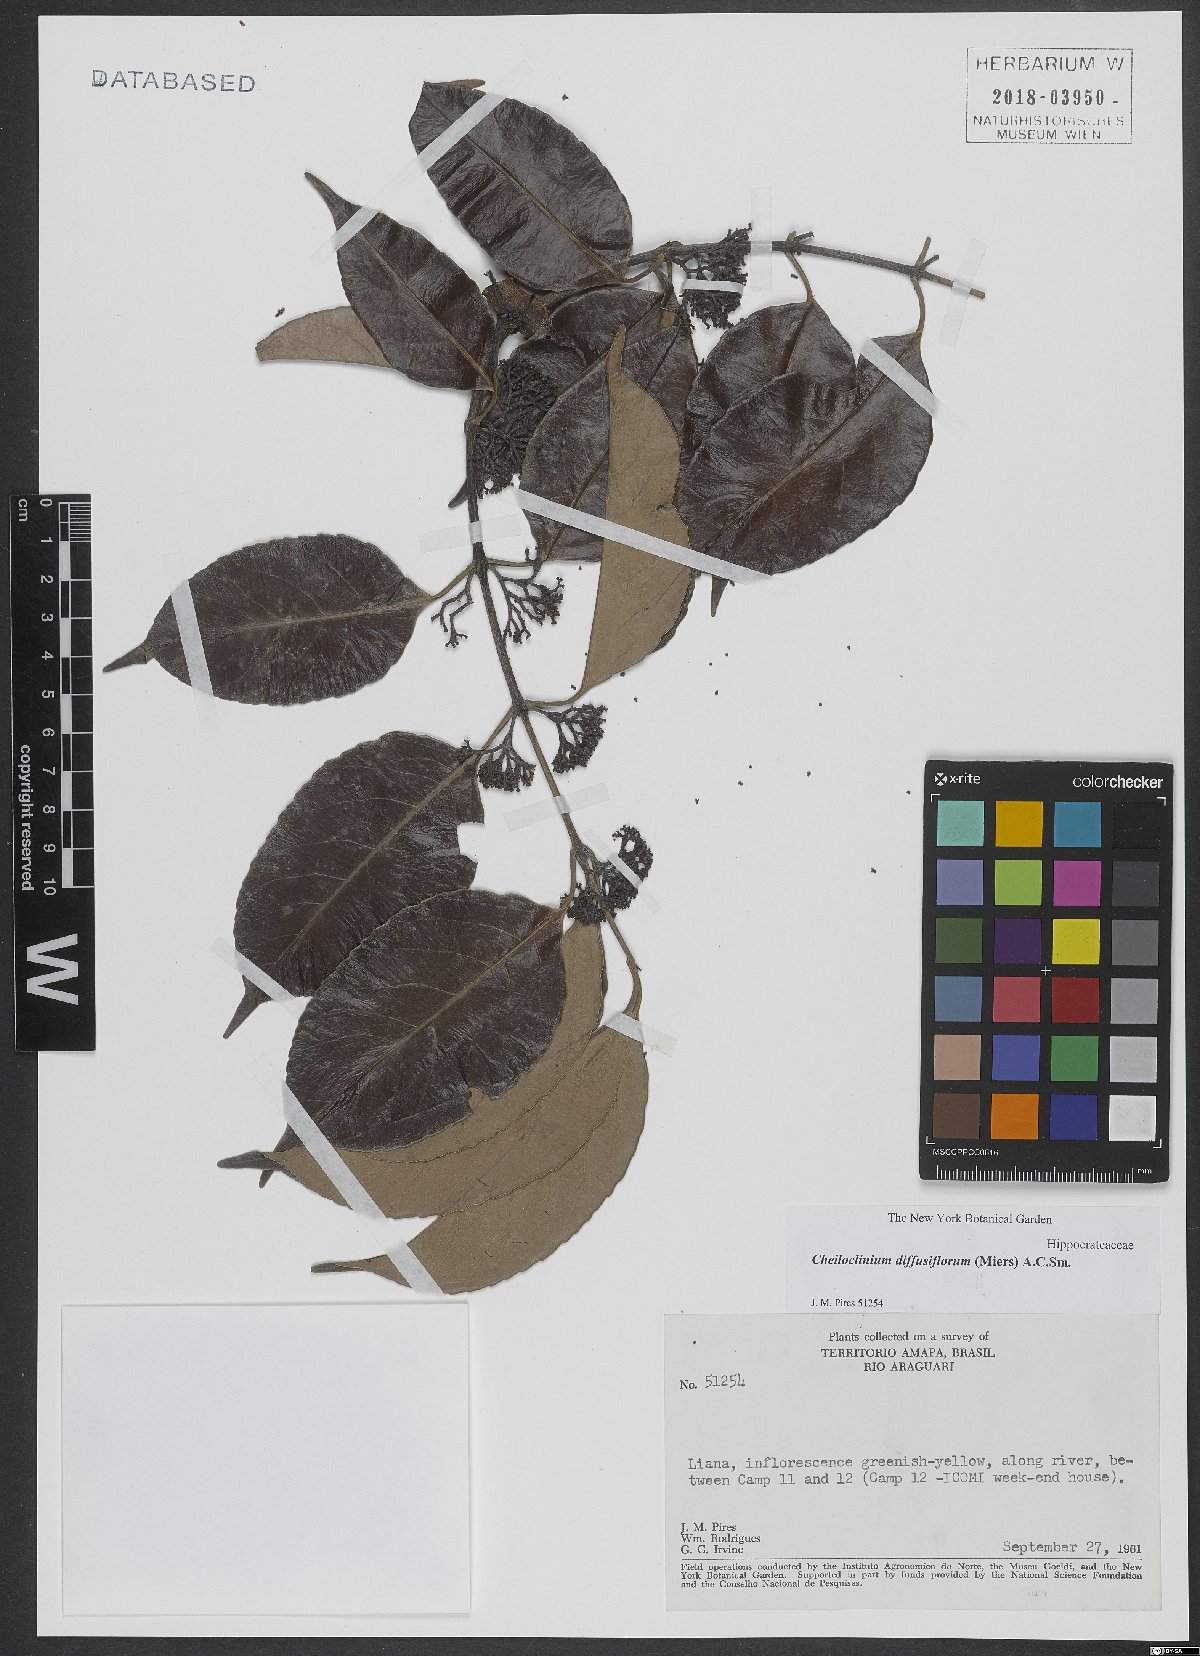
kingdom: Plantae
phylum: Tracheophyta
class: Magnoliopsida
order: Celastrales
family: Celastraceae
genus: Cheiloclinium
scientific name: Cheiloclinium serratum
